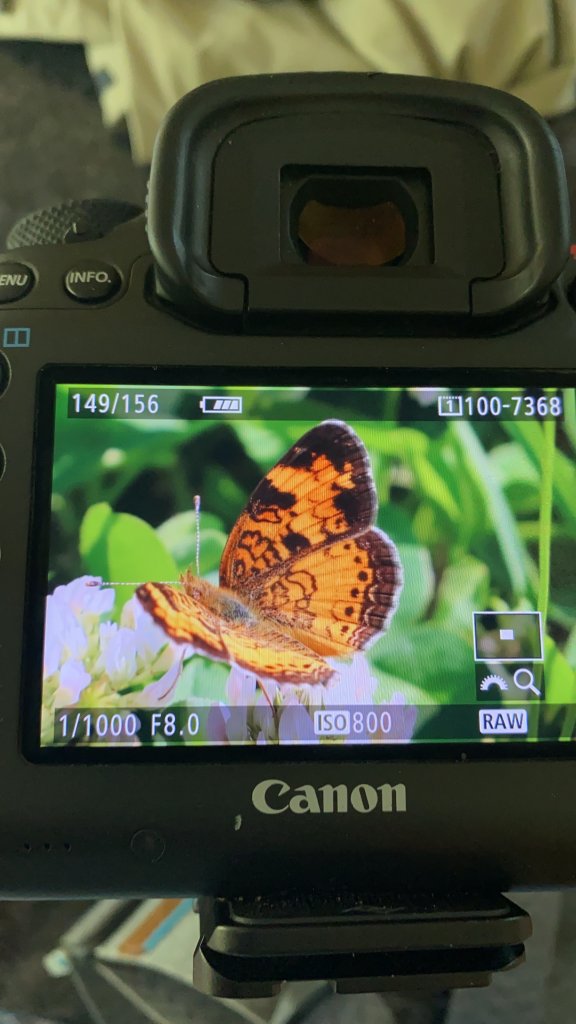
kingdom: Animalia
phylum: Arthropoda
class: Insecta
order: Lepidoptera
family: Nymphalidae
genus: Phyciodes
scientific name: Phyciodes tharos
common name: Northern Crescent
